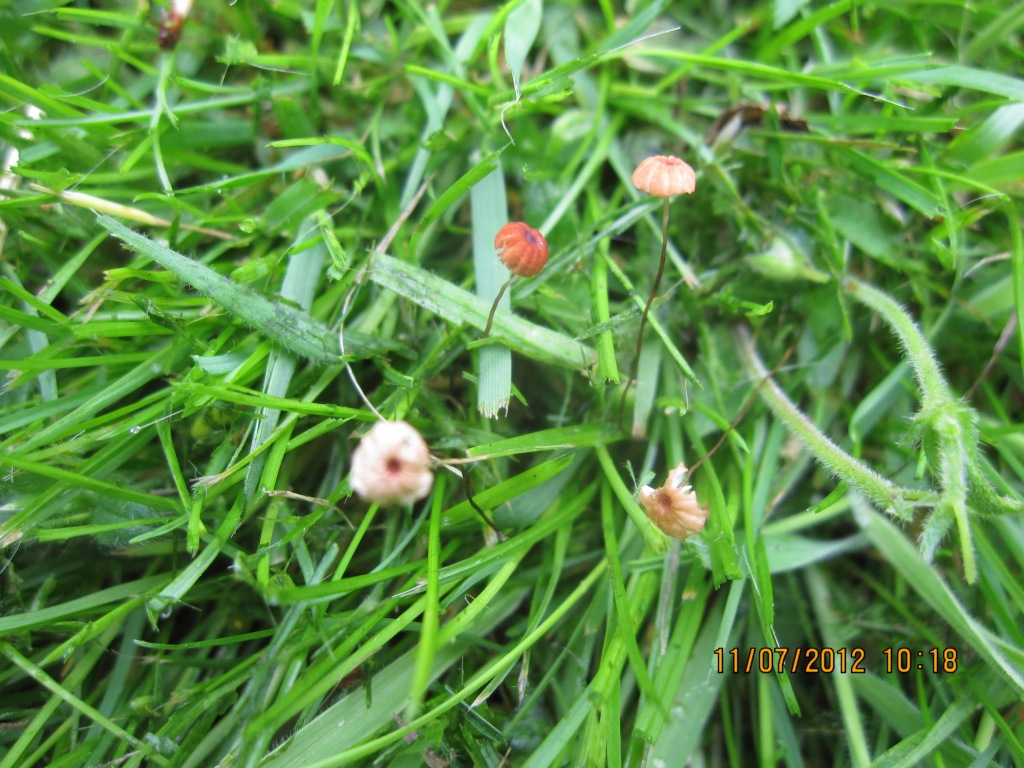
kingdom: Fungi
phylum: Basidiomycota
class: Agaricomycetes
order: Agaricales
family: Marasmiaceae
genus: Marasmius
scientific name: Marasmius curreyi
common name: teglrød bruskhat
